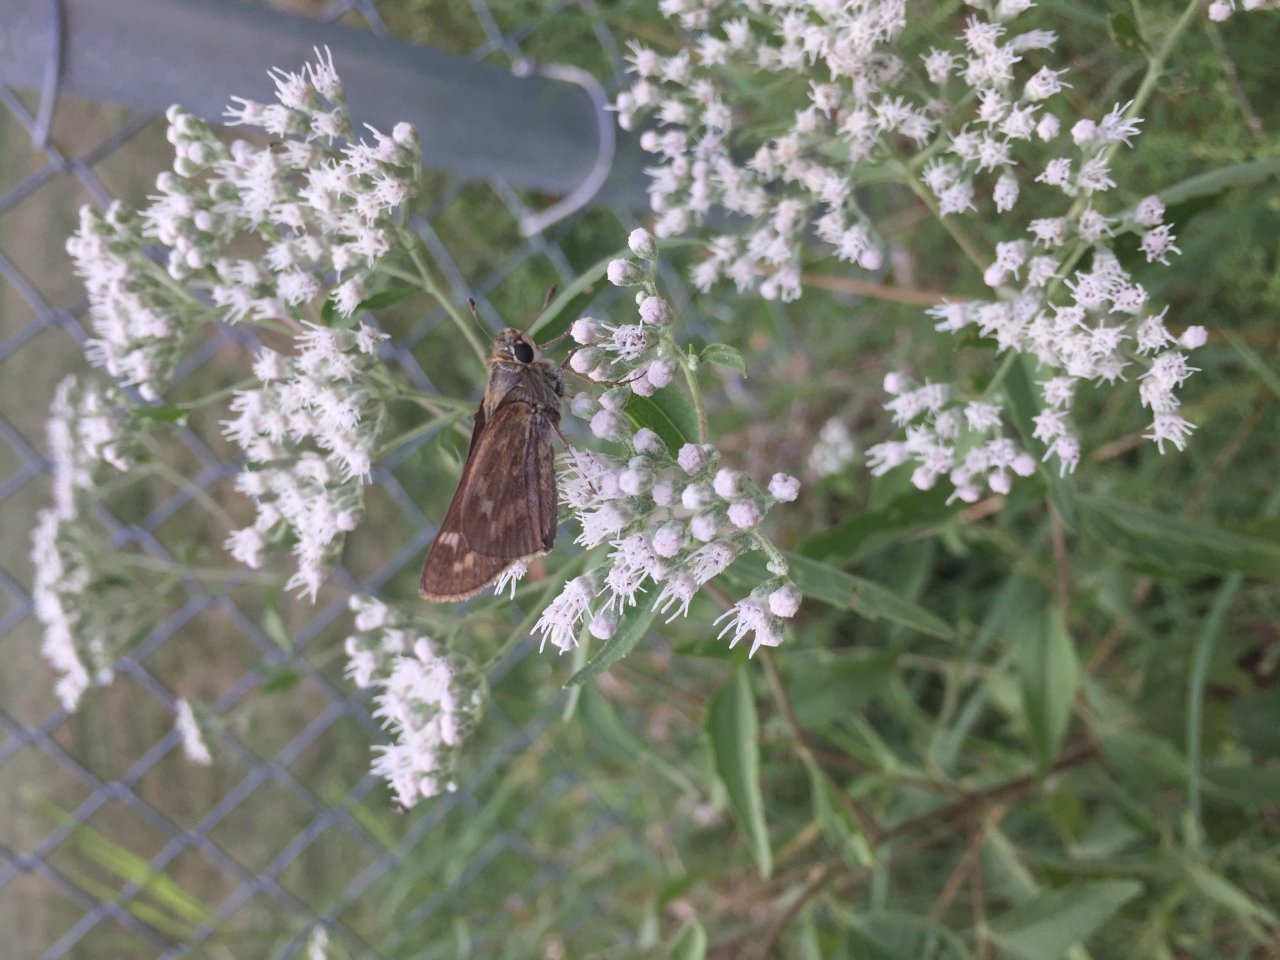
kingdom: Animalia
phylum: Arthropoda
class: Insecta
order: Lepidoptera
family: Hesperiidae
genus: Atalopedes
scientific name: Atalopedes campestris
